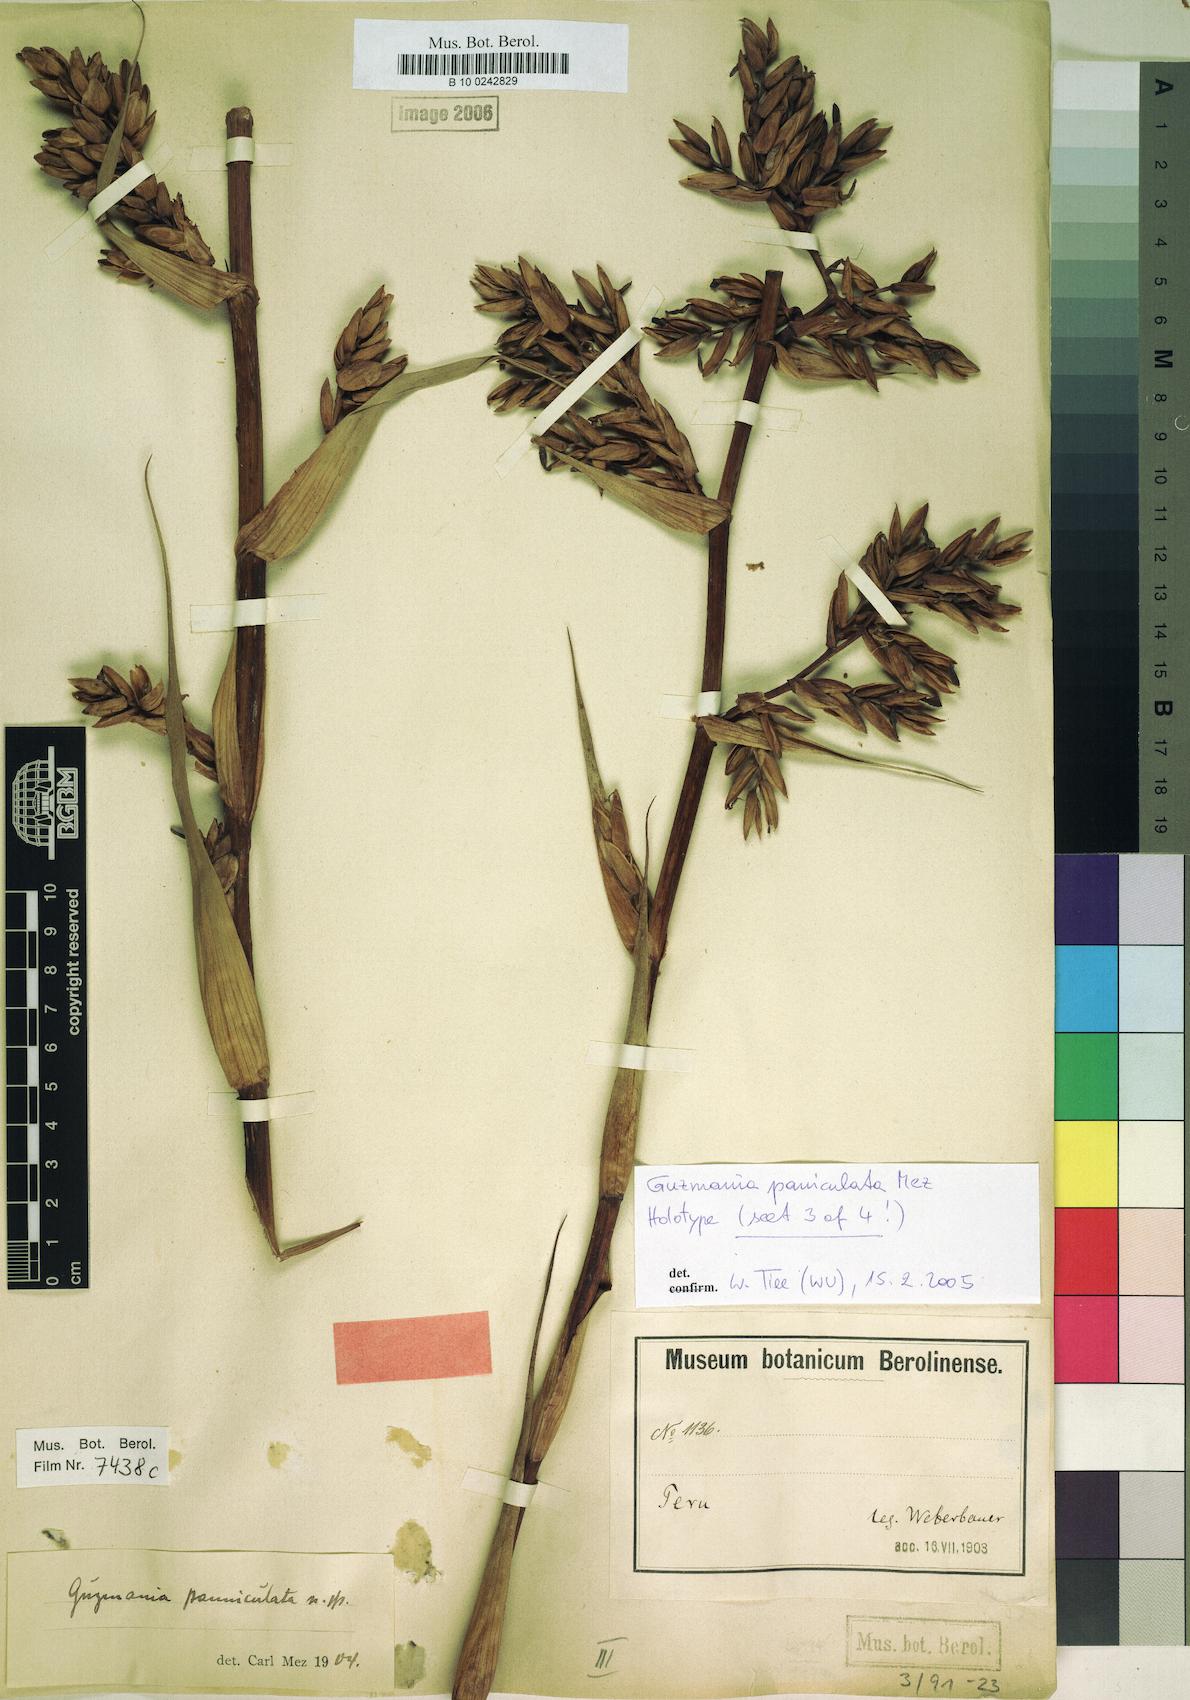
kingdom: Plantae
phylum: Tracheophyta
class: Liliopsida
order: Poales
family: Bromeliaceae
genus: Guzmania
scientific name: Guzmania paniculata
